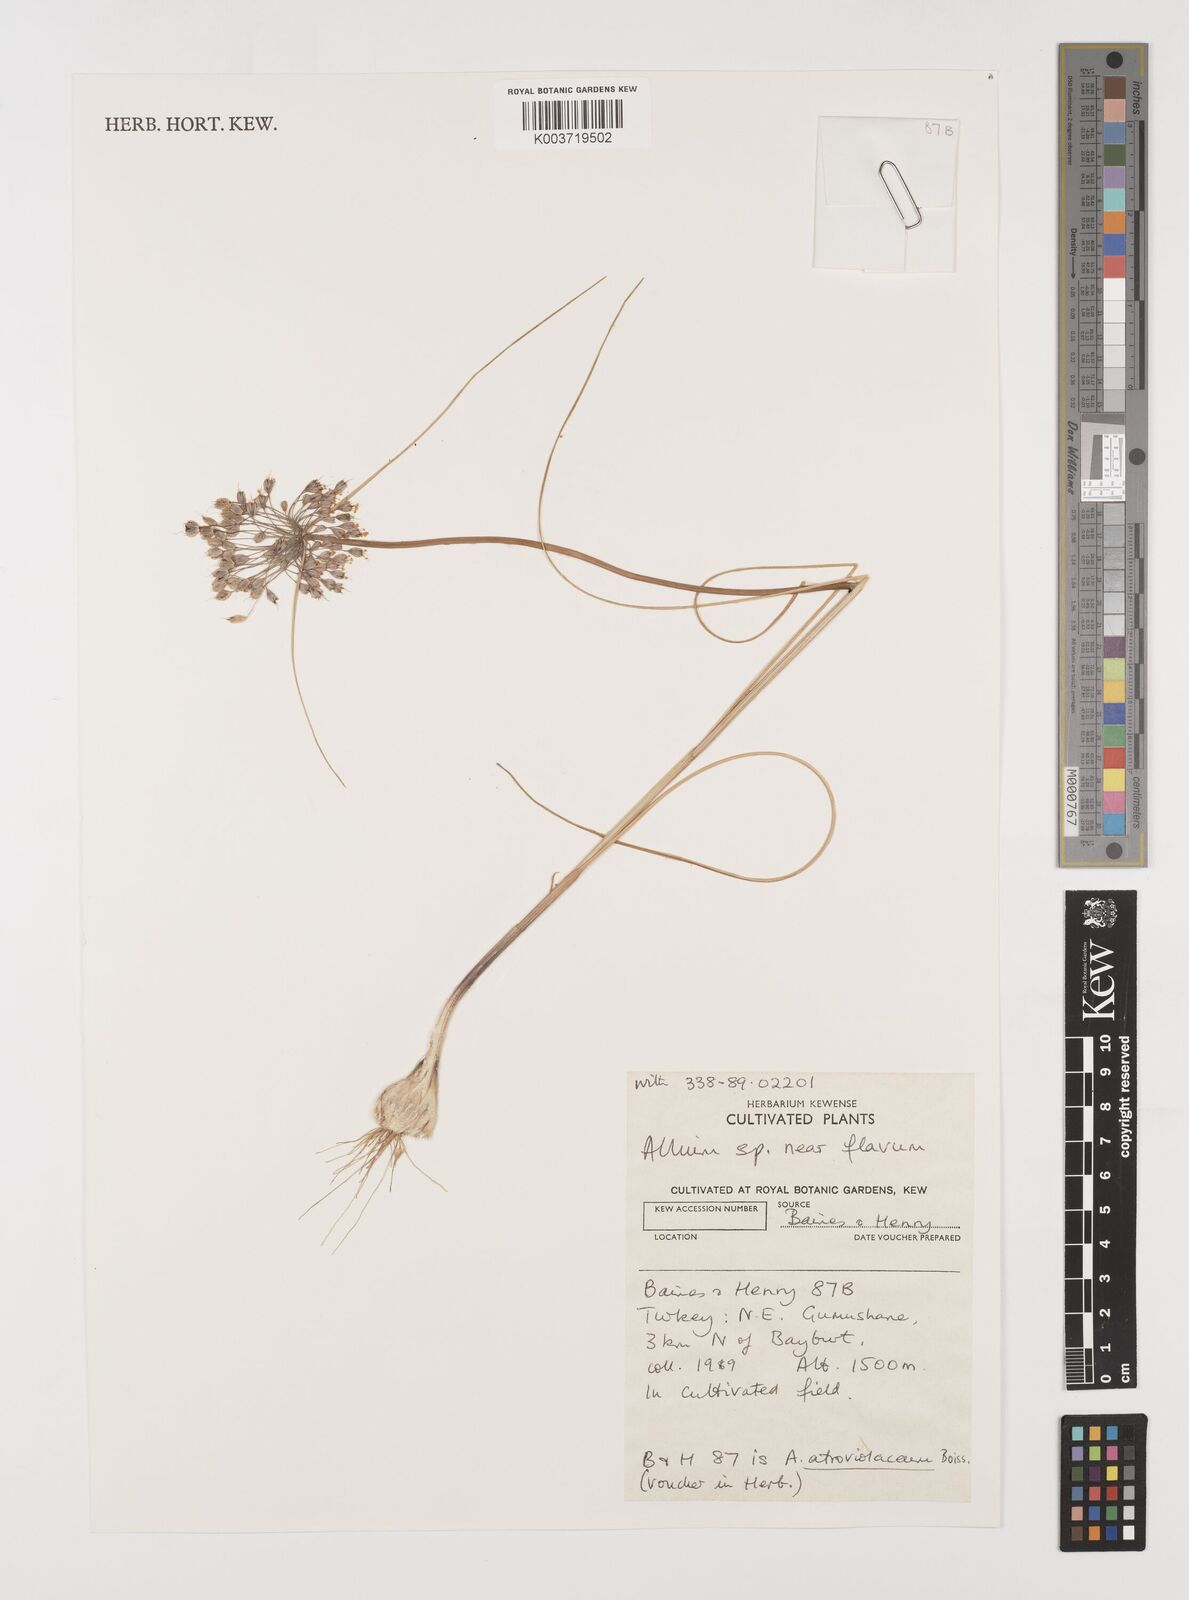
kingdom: Plantae
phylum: Tracheophyta
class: Liliopsida
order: Asparagales
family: Amaryllidaceae
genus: Allium
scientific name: Allium flavum
